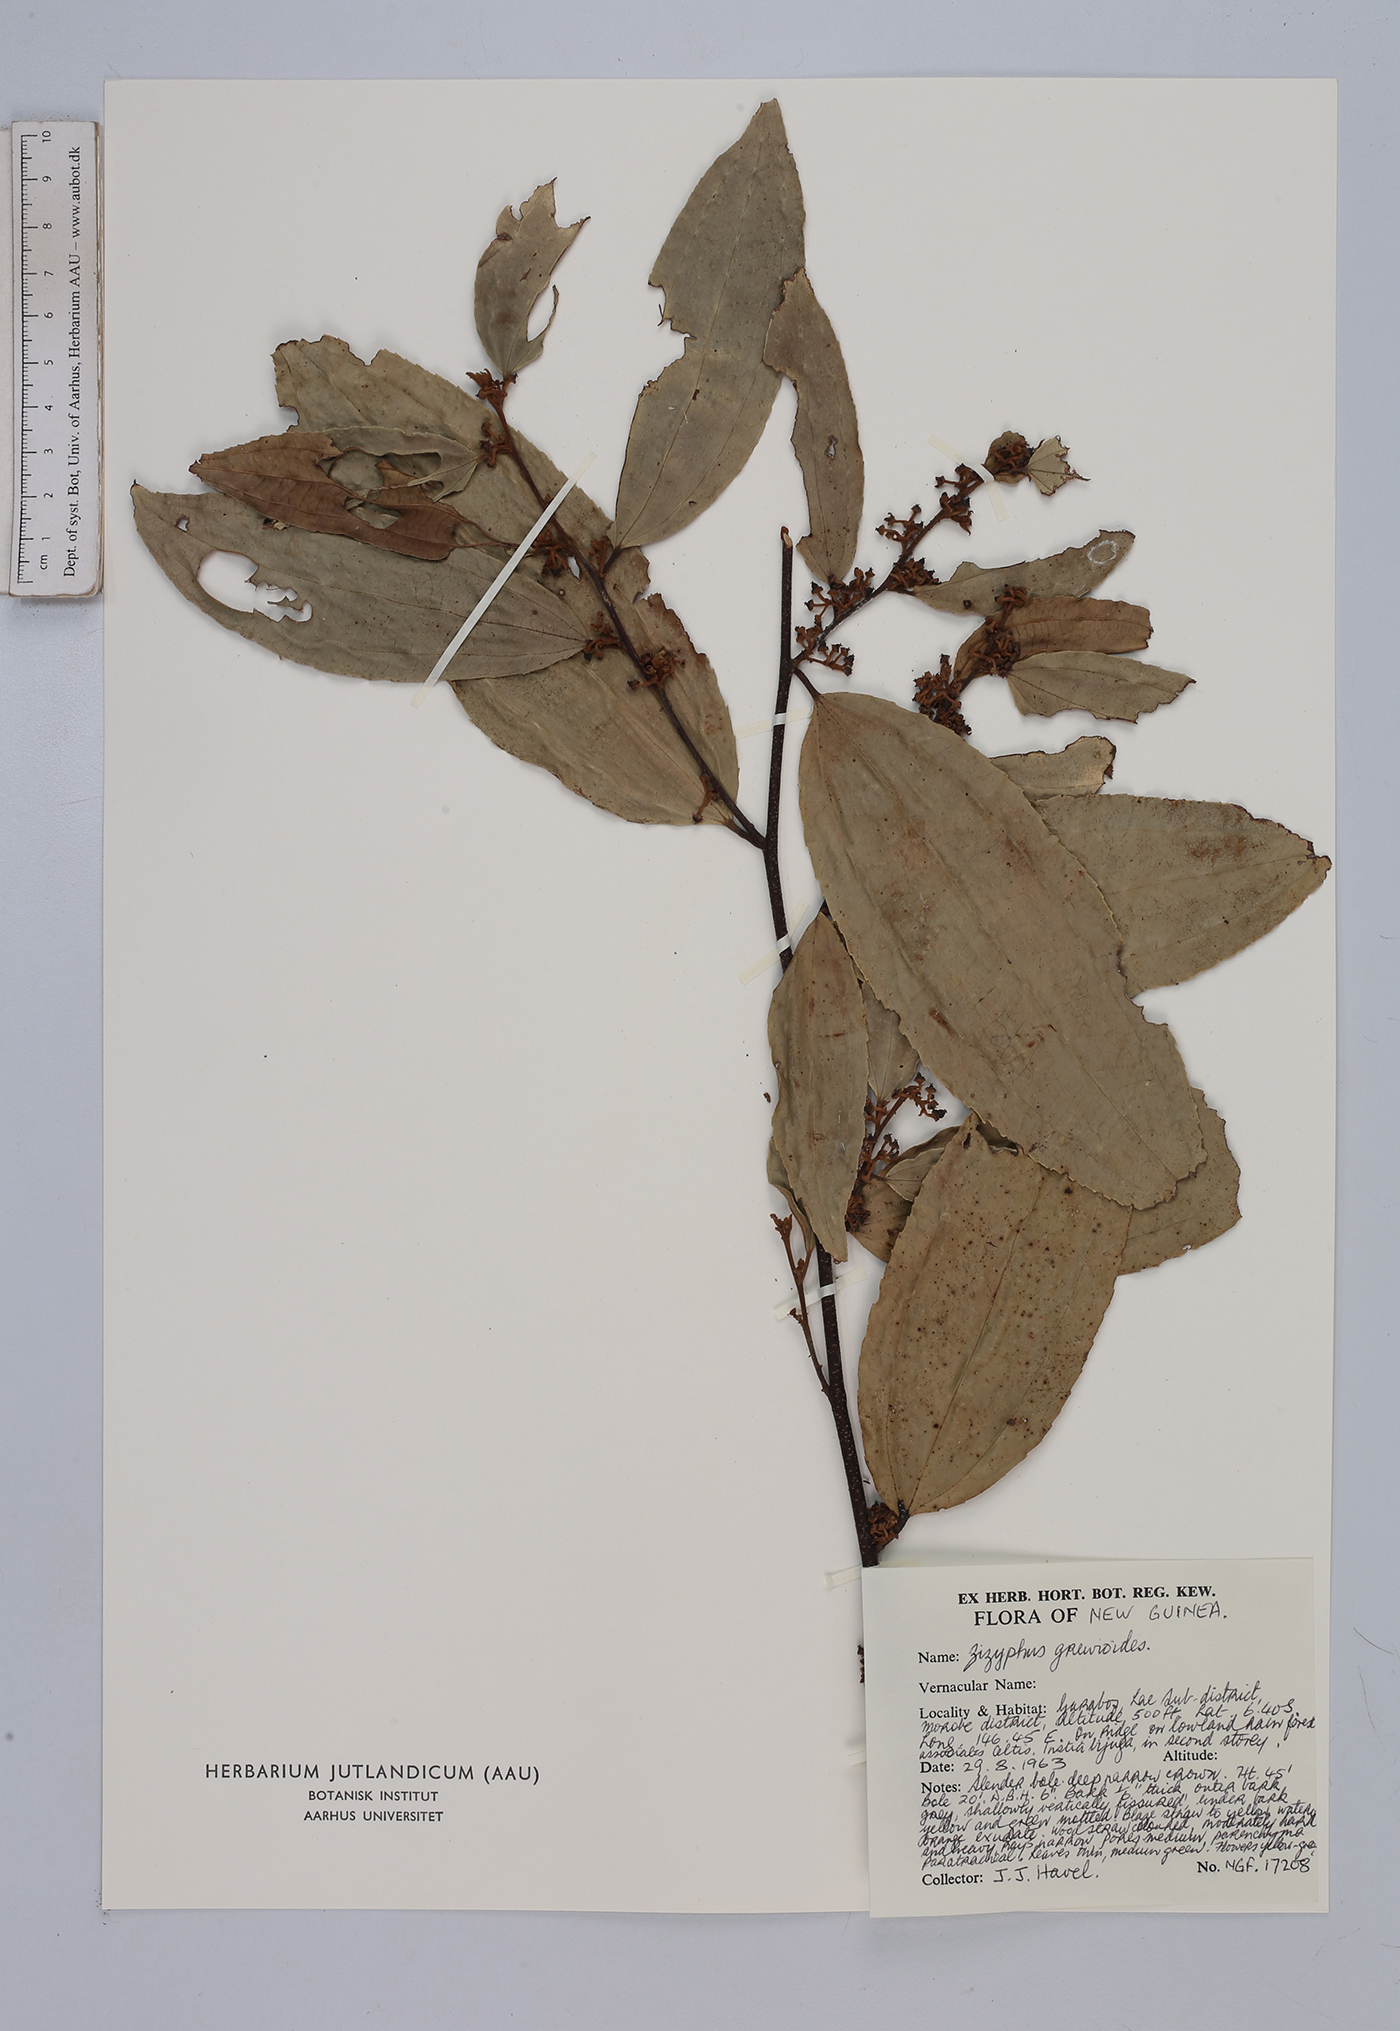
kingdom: Plantae
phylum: Tracheophyta
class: Magnoliopsida
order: Rosales
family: Rhamnaceae
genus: Ziziphus
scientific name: Ziziphus angustifolia
